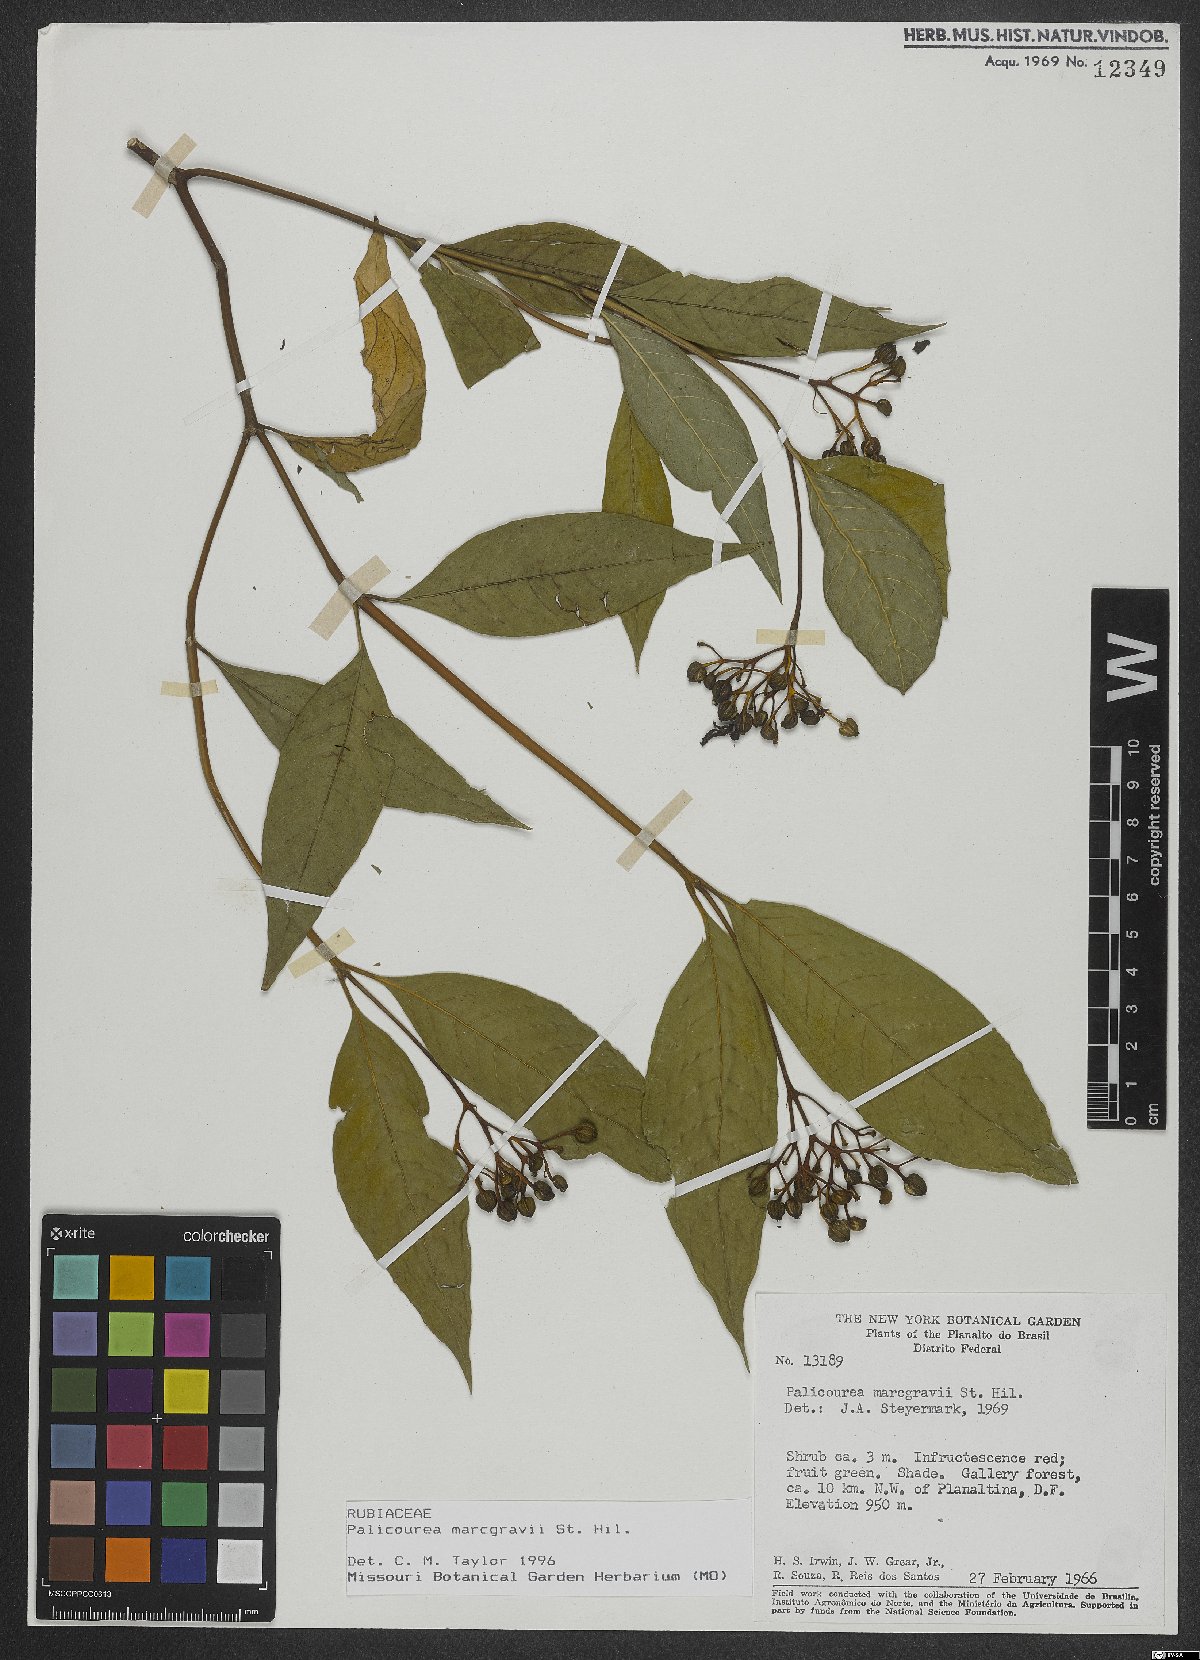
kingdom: Plantae
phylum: Tracheophyta
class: Magnoliopsida
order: Gentianales
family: Rubiaceae
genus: Palicourea
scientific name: Palicourea marcgravii
